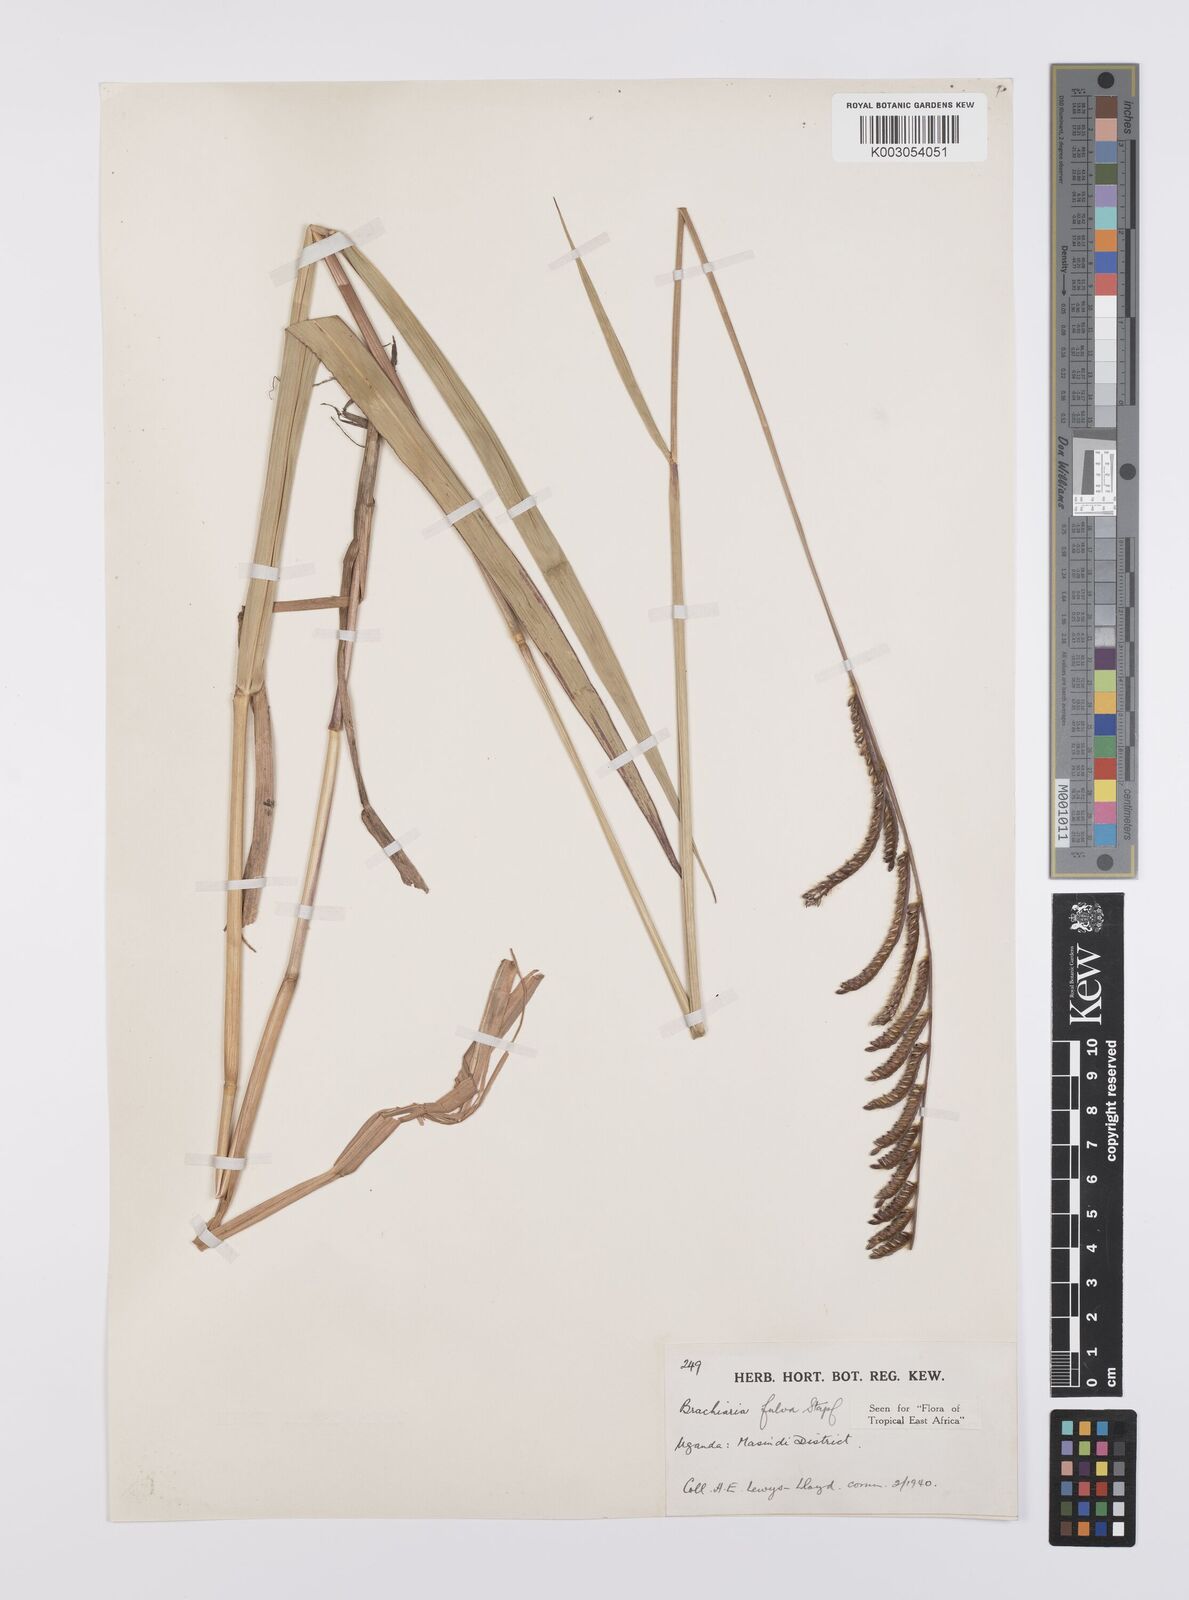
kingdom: Plantae
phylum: Tracheophyta
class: Liliopsida
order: Poales
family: Poaceae
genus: Urochloa
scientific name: Urochloa jubata
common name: Buffalograss
